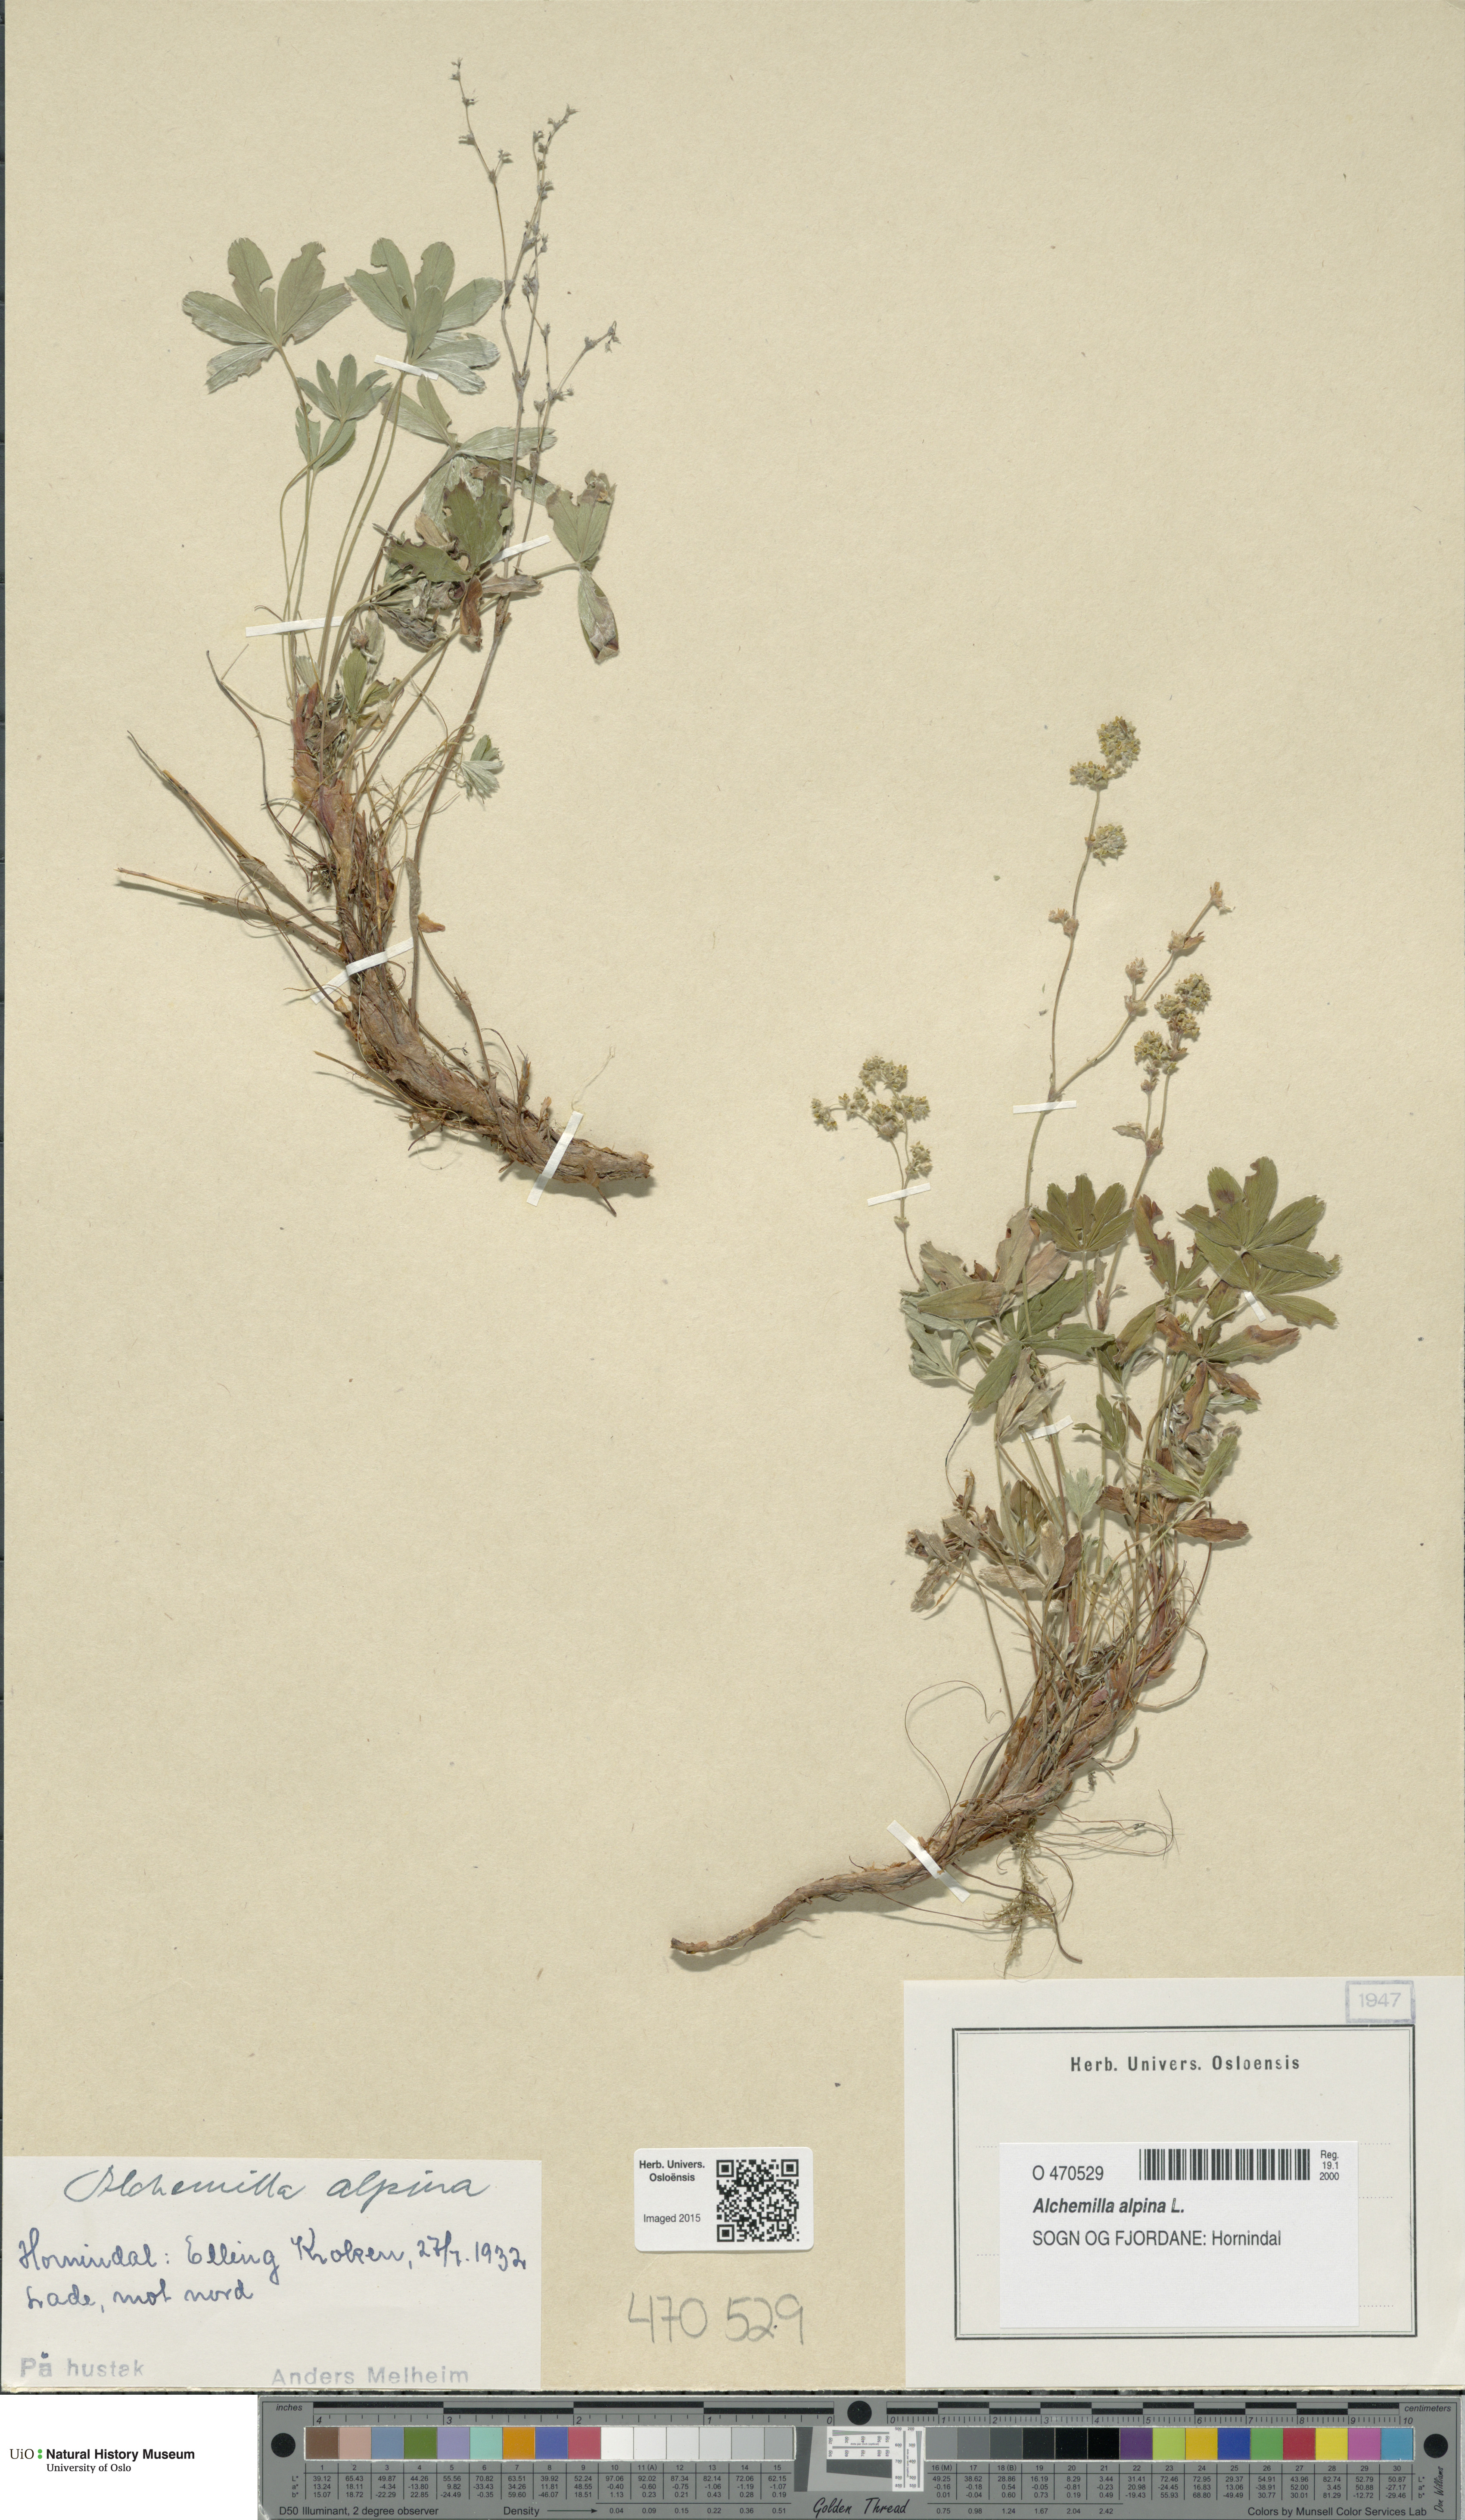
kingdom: Plantae
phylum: Tracheophyta
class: Magnoliopsida
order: Rosales
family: Rosaceae
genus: Alchemilla
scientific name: Alchemilla alpina
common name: Alpine lady's-mantle
